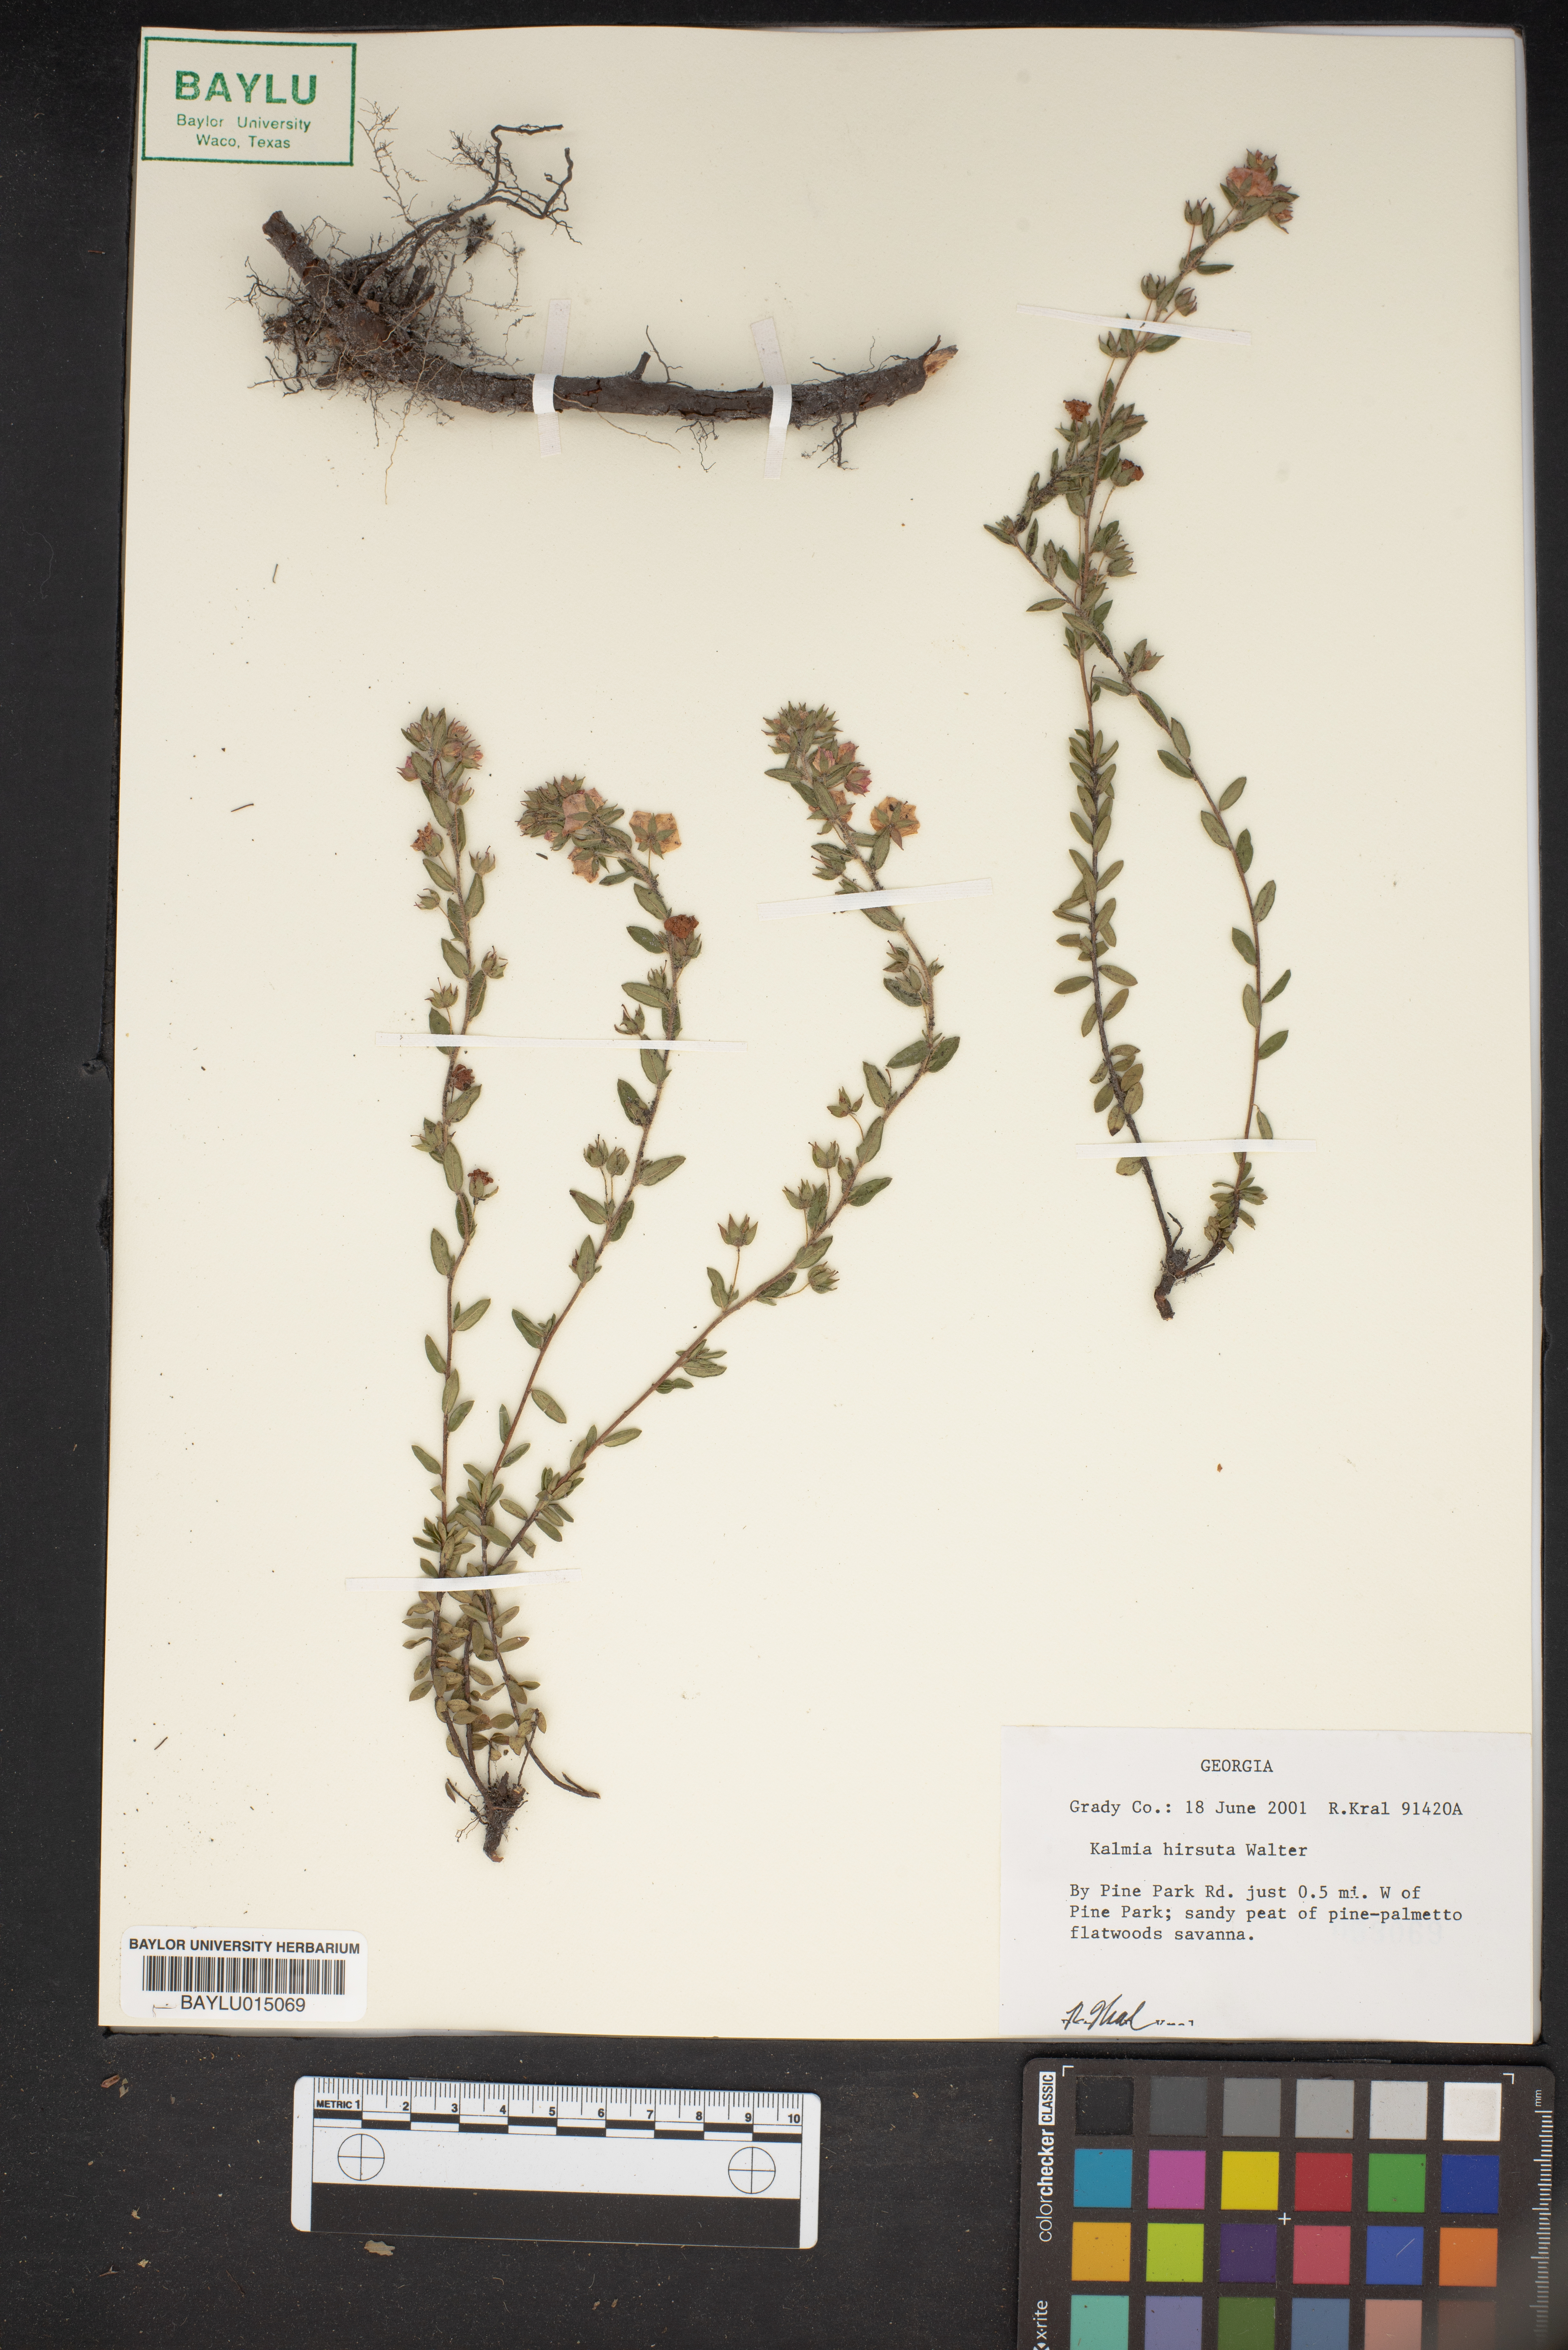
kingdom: Plantae
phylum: Tracheophyta
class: Magnoliopsida
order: Ericales
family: Ericaceae
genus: Kalmia
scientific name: Kalmia hirsuta
